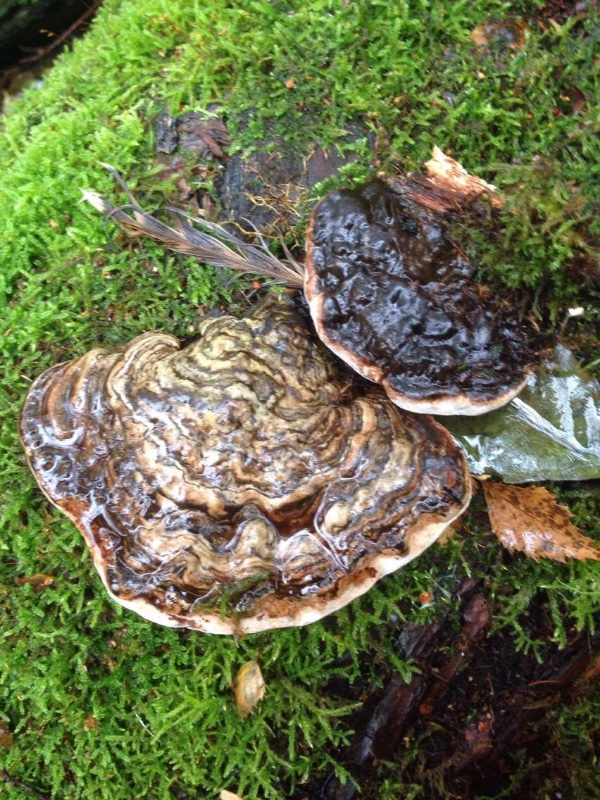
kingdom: Fungi
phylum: Basidiomycota
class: Agaricomycetes
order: Polyporales
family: Polyporaceae
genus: Ganoderma
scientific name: Ganoderma applanatum
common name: flad lakporesvamp
